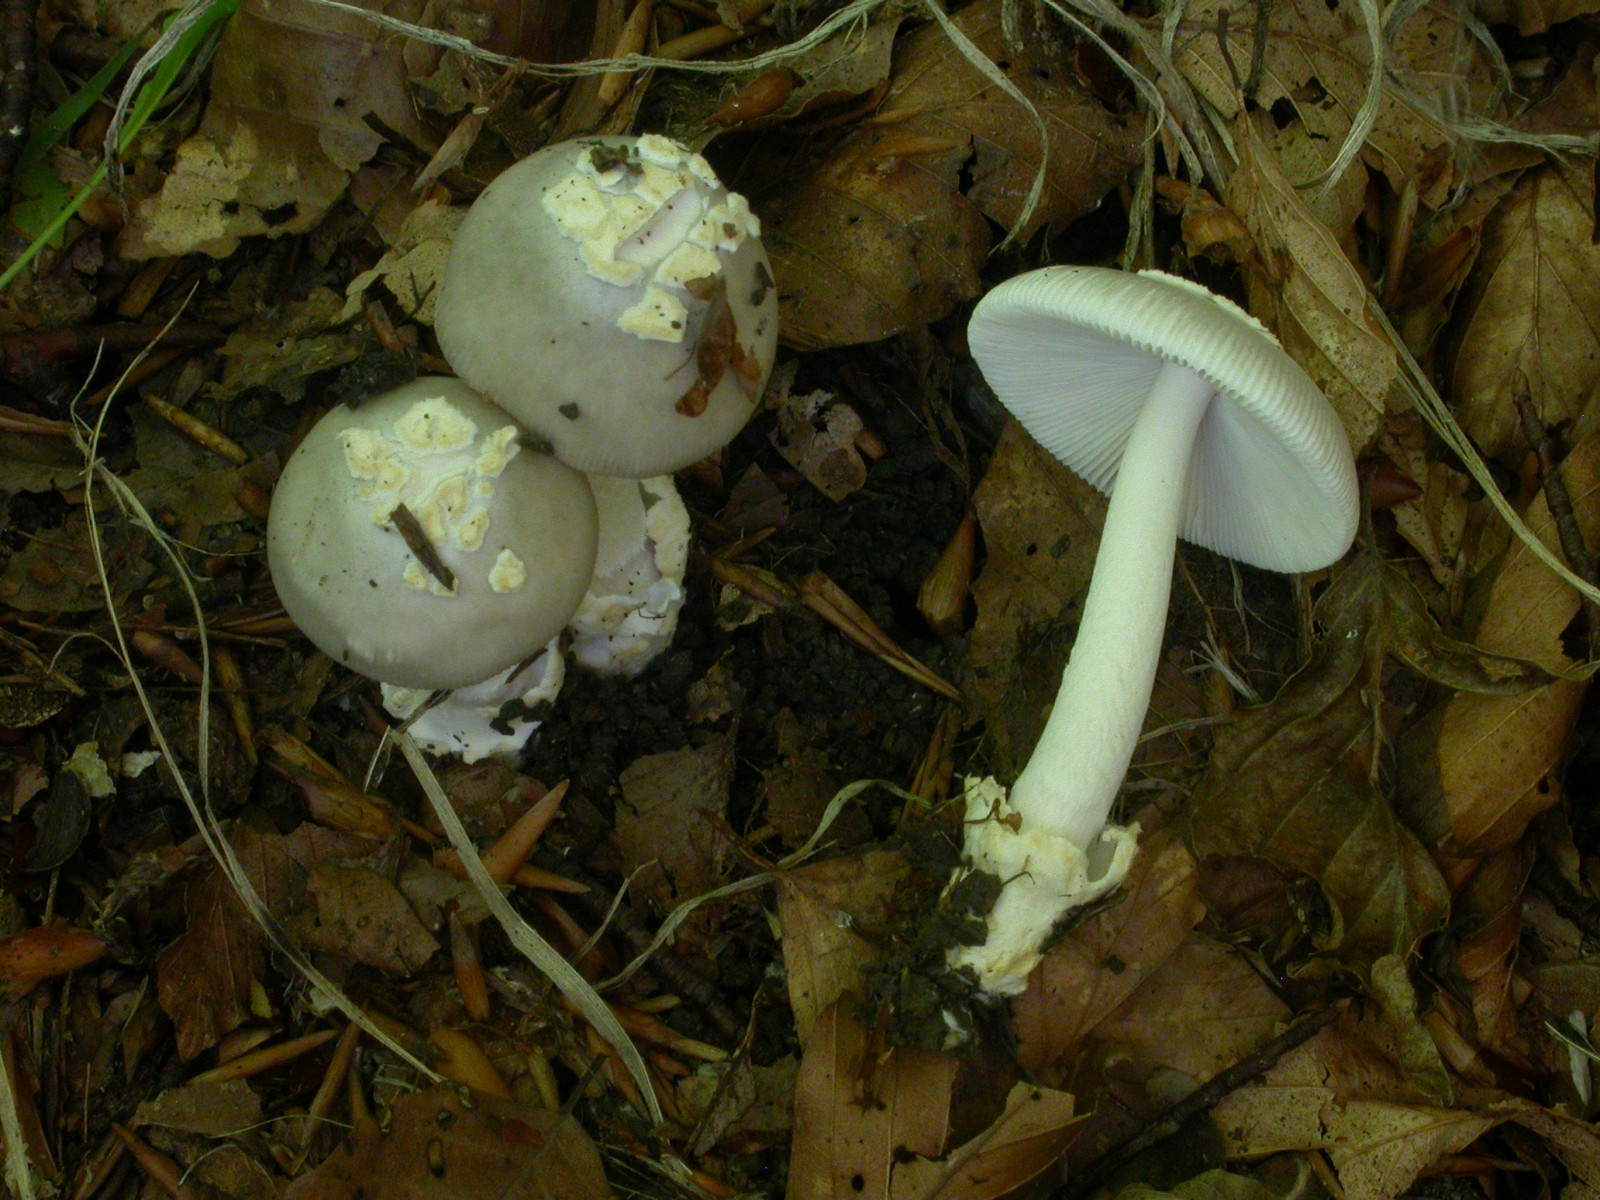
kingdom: Fungi
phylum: Basidiomycota
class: Agaricomycetes
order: Agaricales
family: Amanitaceae
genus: Amanita
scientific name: Amanita
